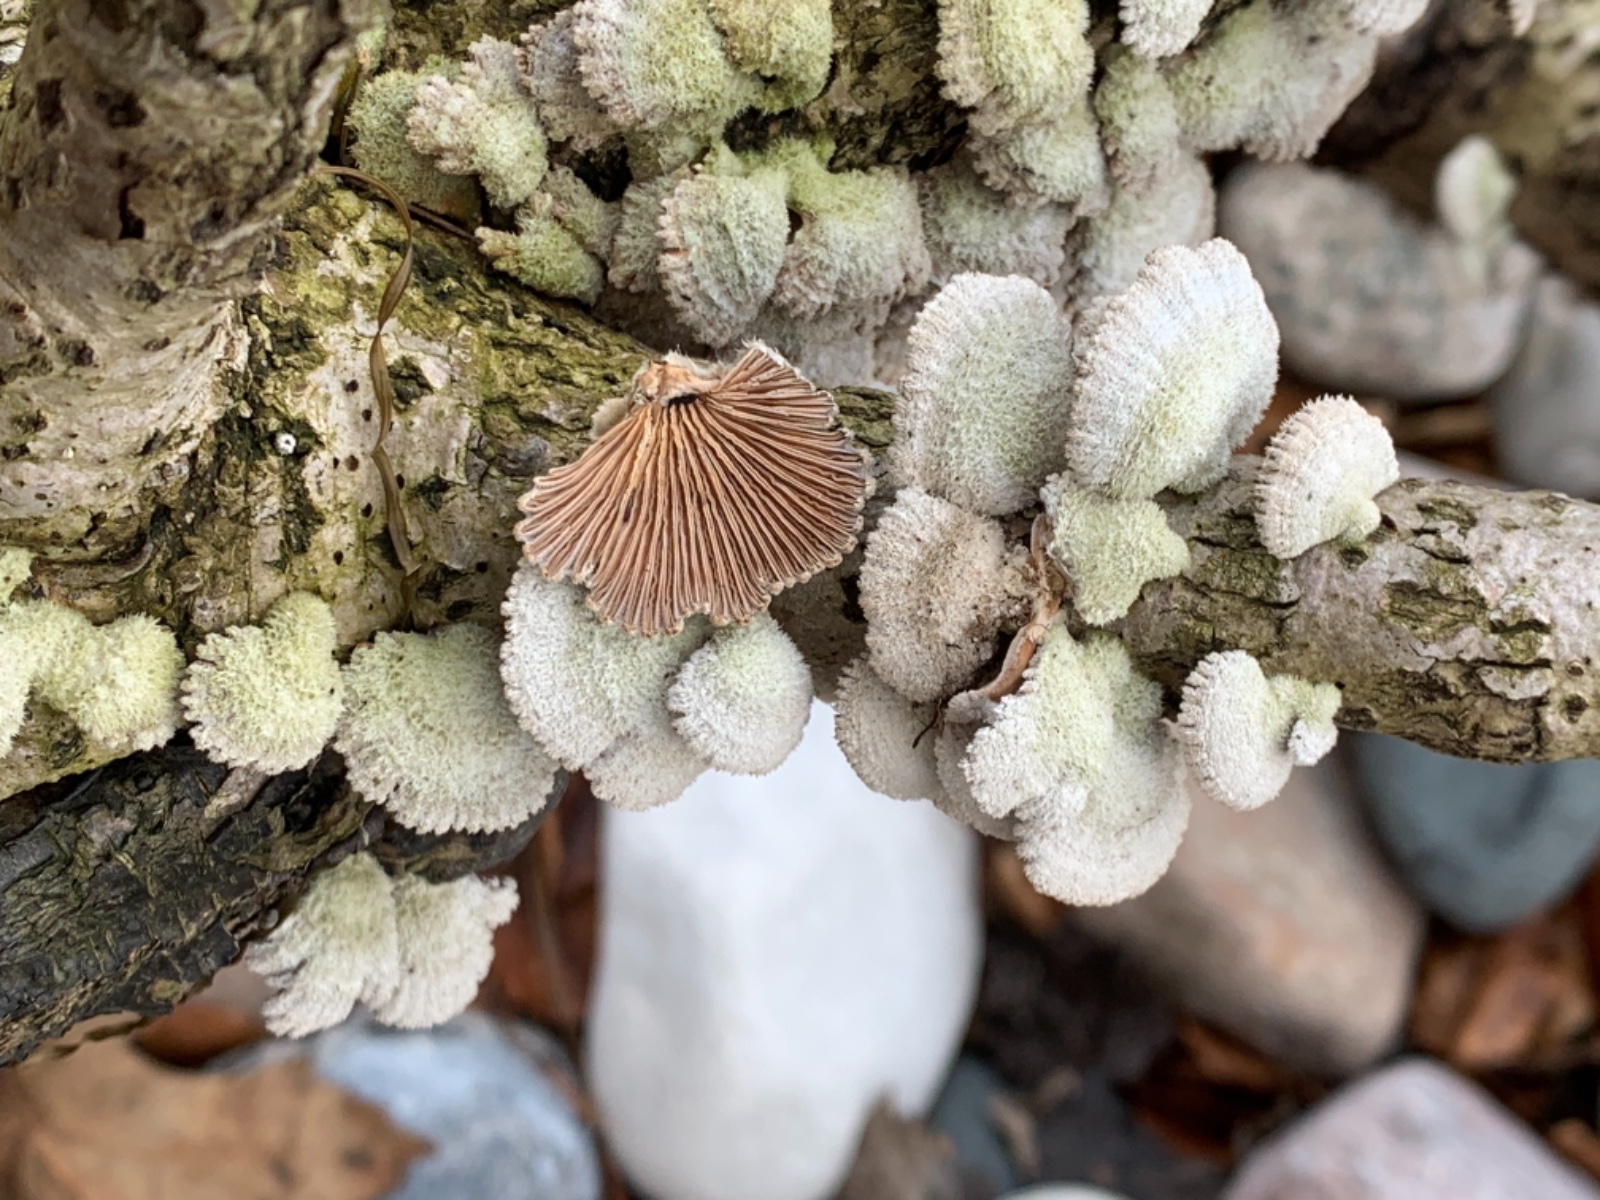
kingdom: Fungi
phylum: Basidiomycota
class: Agaricomycetes
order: Agaricales
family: Schizophyllaceae
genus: Schizophyllum
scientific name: Schizophyllum commune
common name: kløvblad
